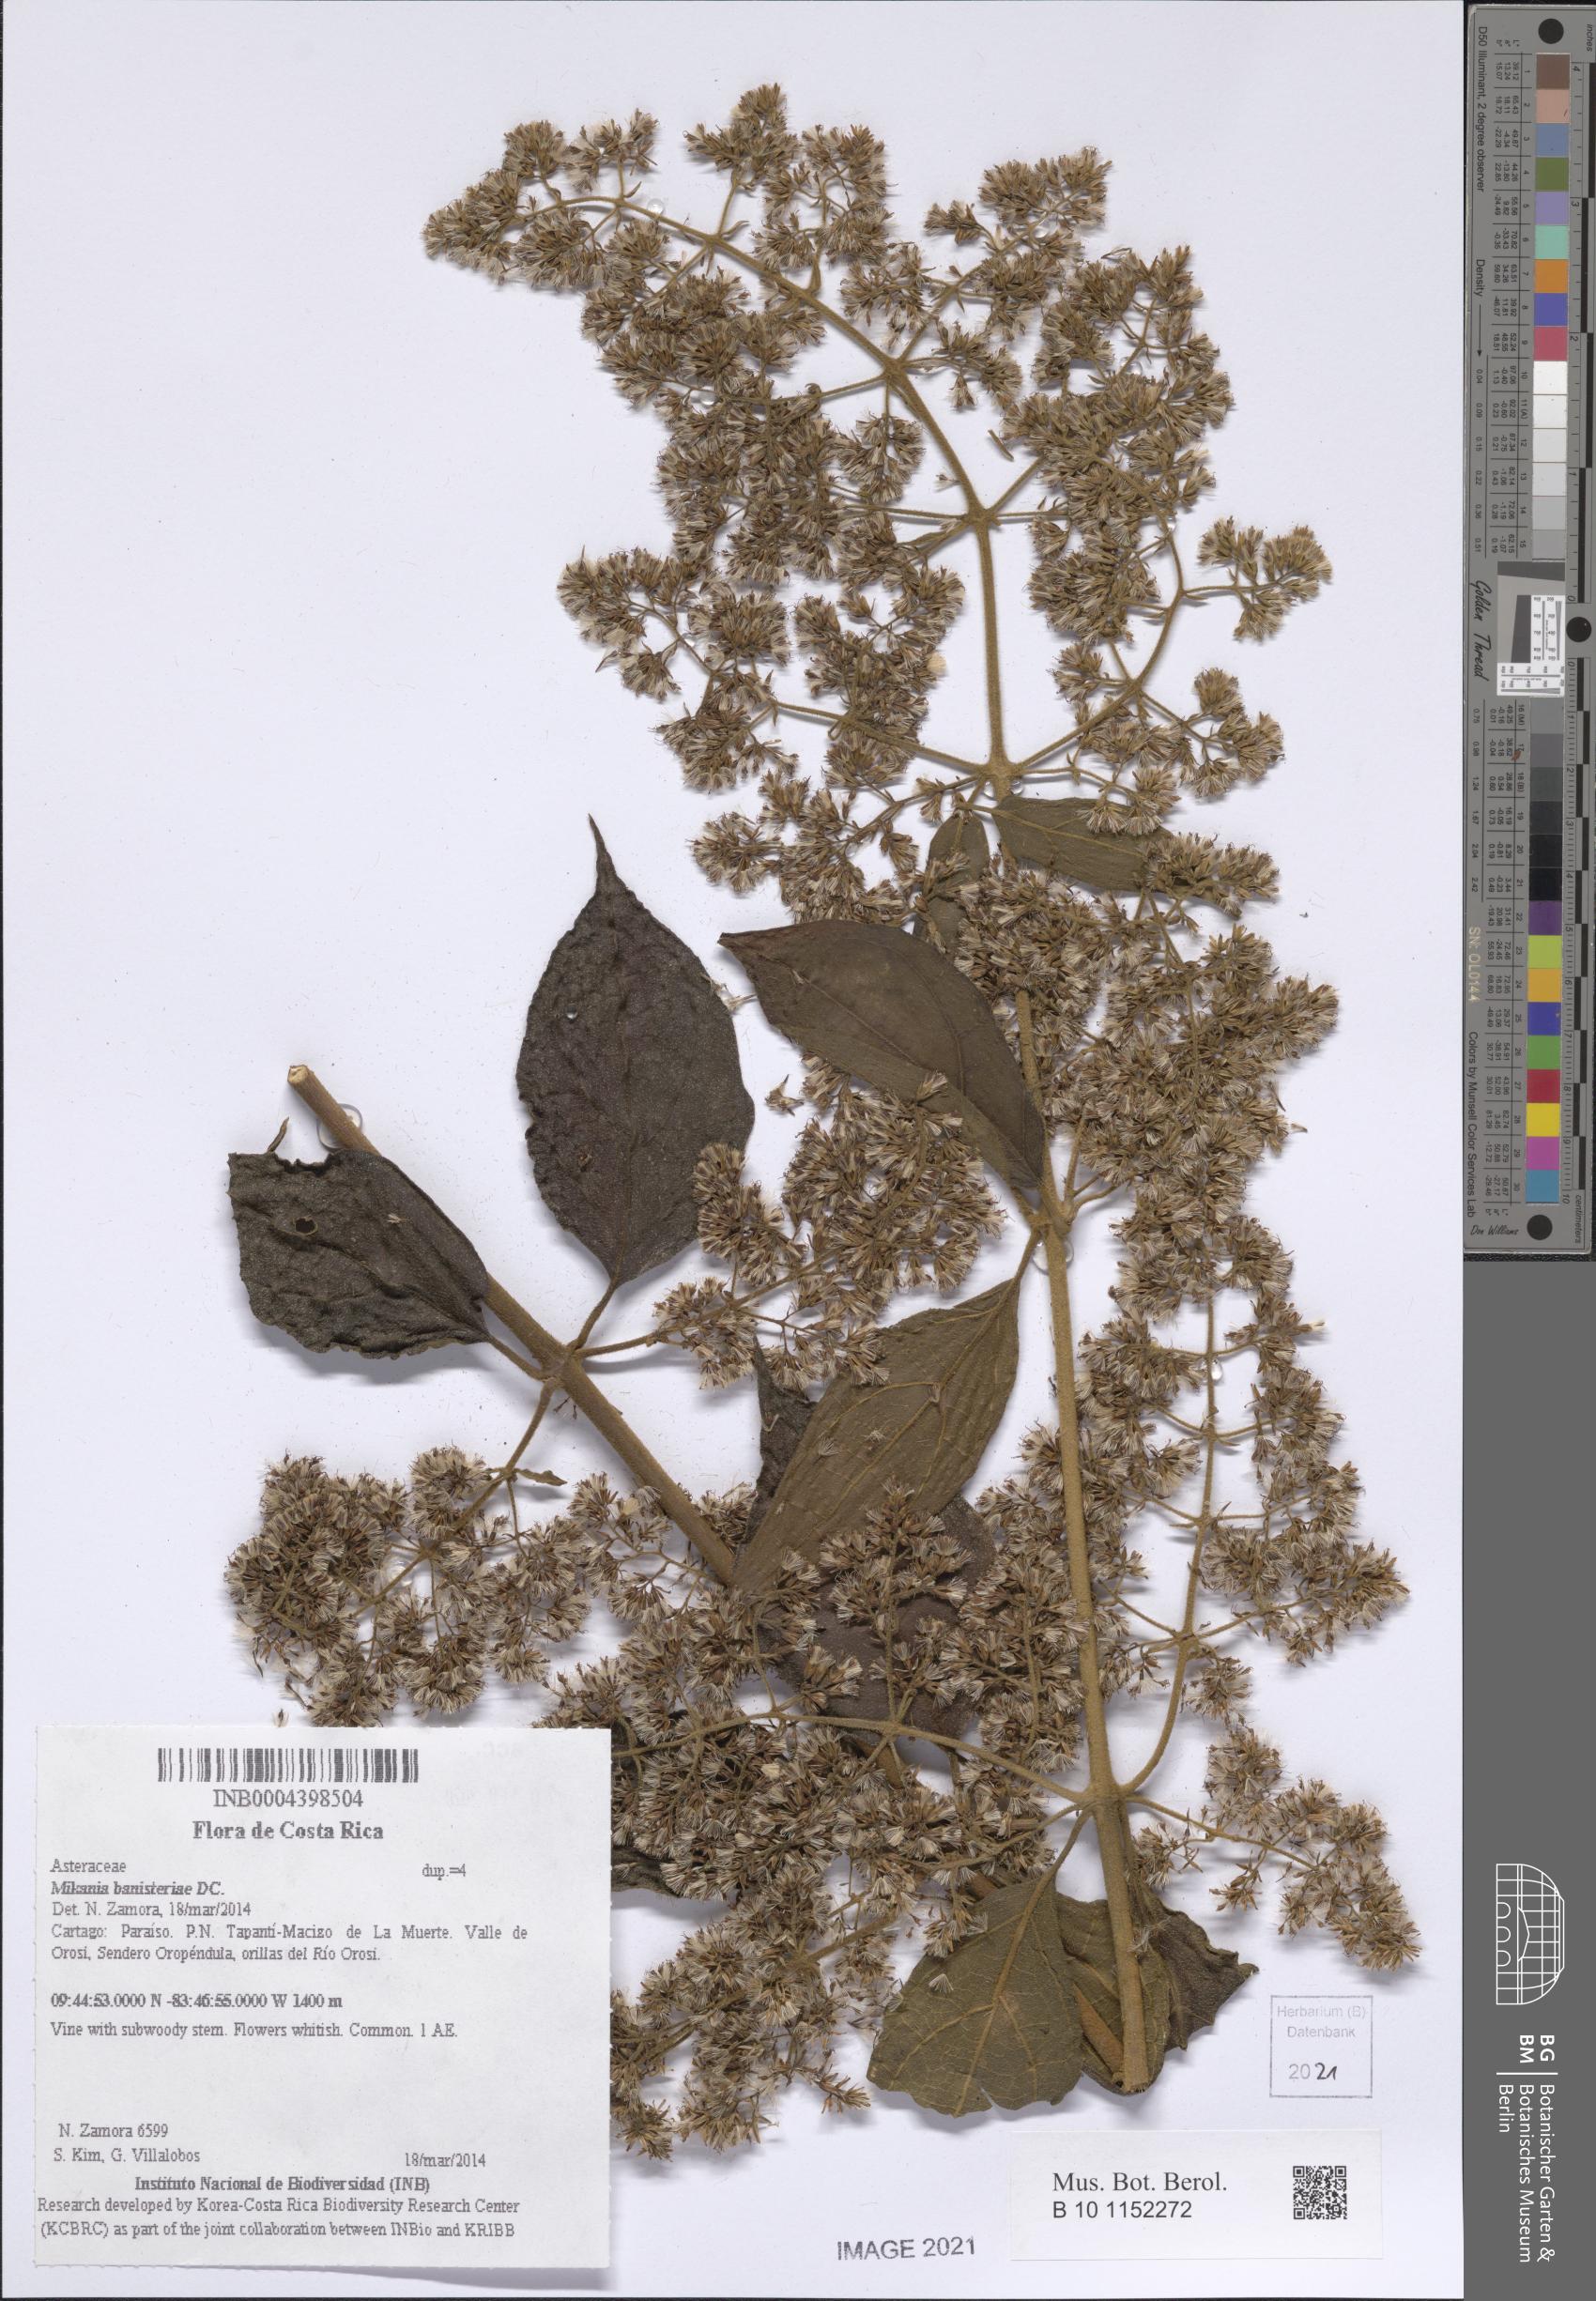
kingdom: Plantae
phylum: Tracheophyta
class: Magnoliopsida
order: Asterales
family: Asteraceae
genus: Mikania
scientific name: Mikania banisteriae
